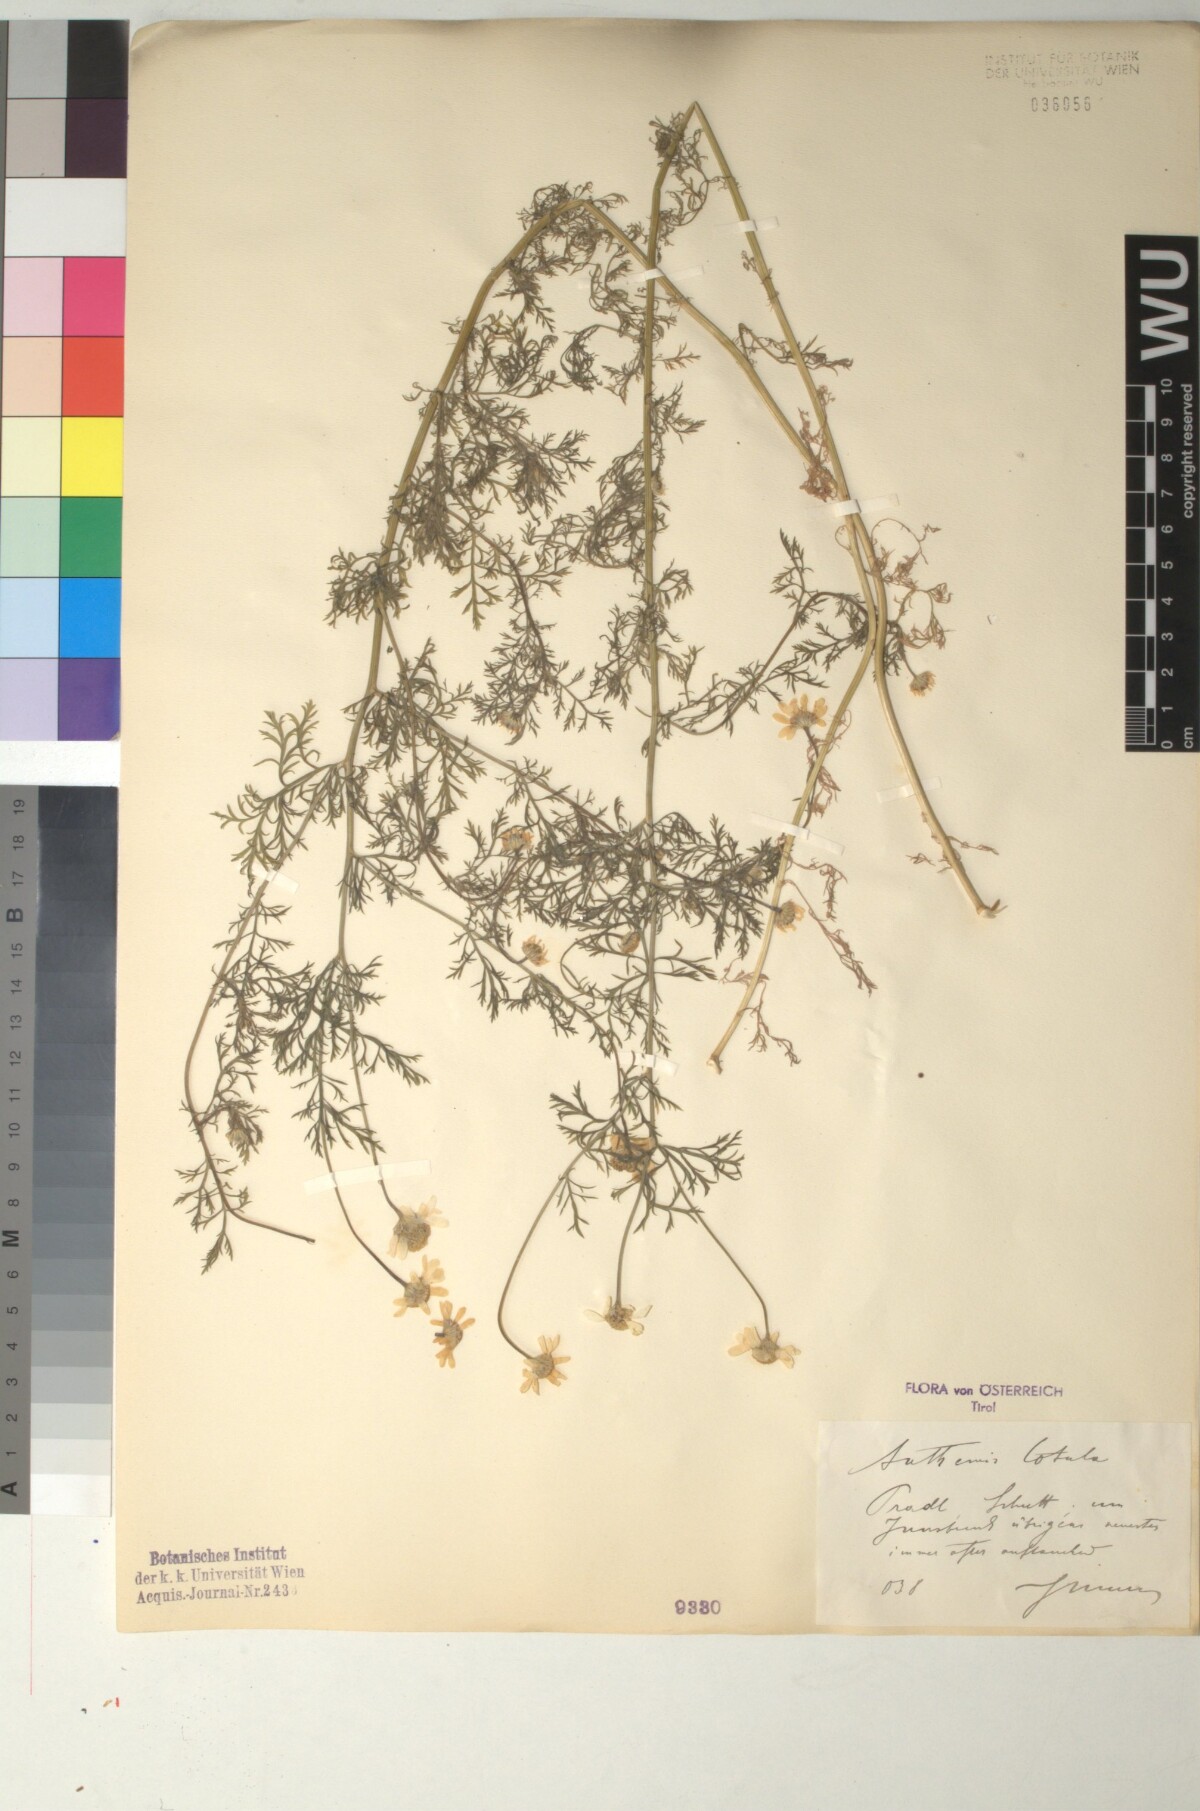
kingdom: Plantae
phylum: Tracheophyta
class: Magnoliopsida
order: Asterales
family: Asteraceae
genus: Anthemis
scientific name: Anthemis cotula
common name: Stinking chamomile
